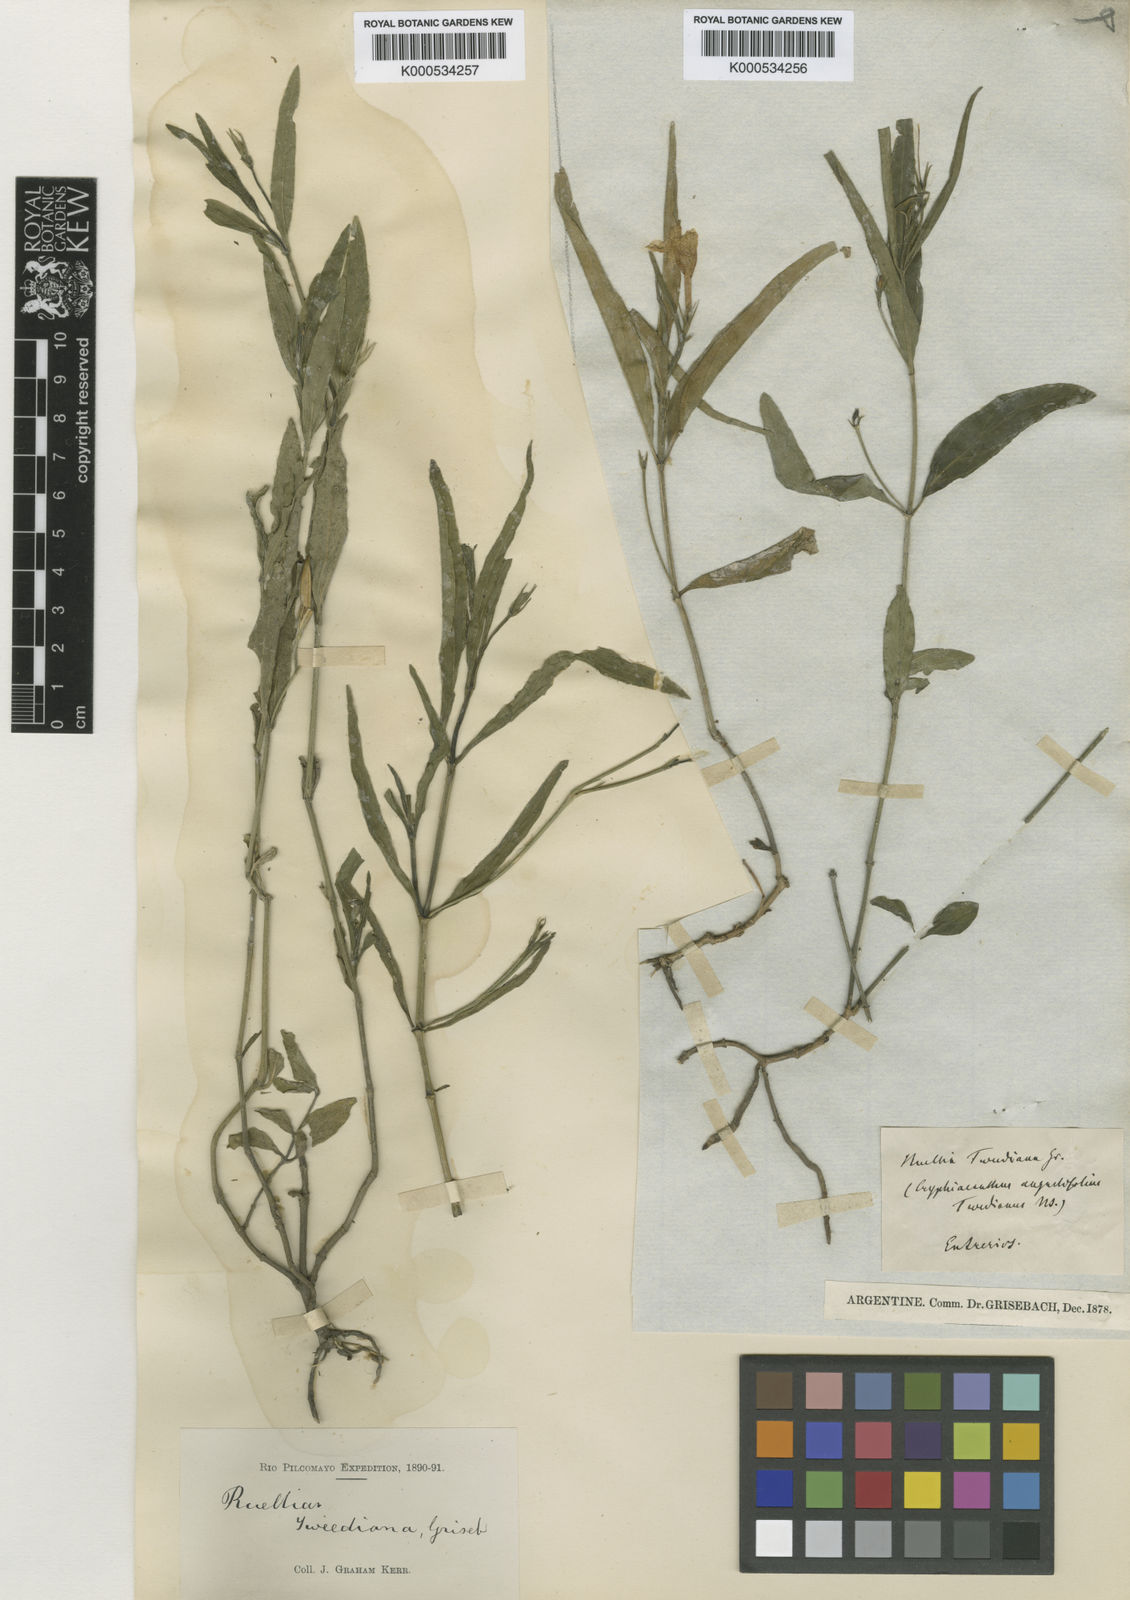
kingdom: Plantae
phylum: Tracheophyta
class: Magnoliopsida
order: Lamiales
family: Acanthaceae
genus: Ruellia
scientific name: Ruellia simplex
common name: Softseed wild petunia
